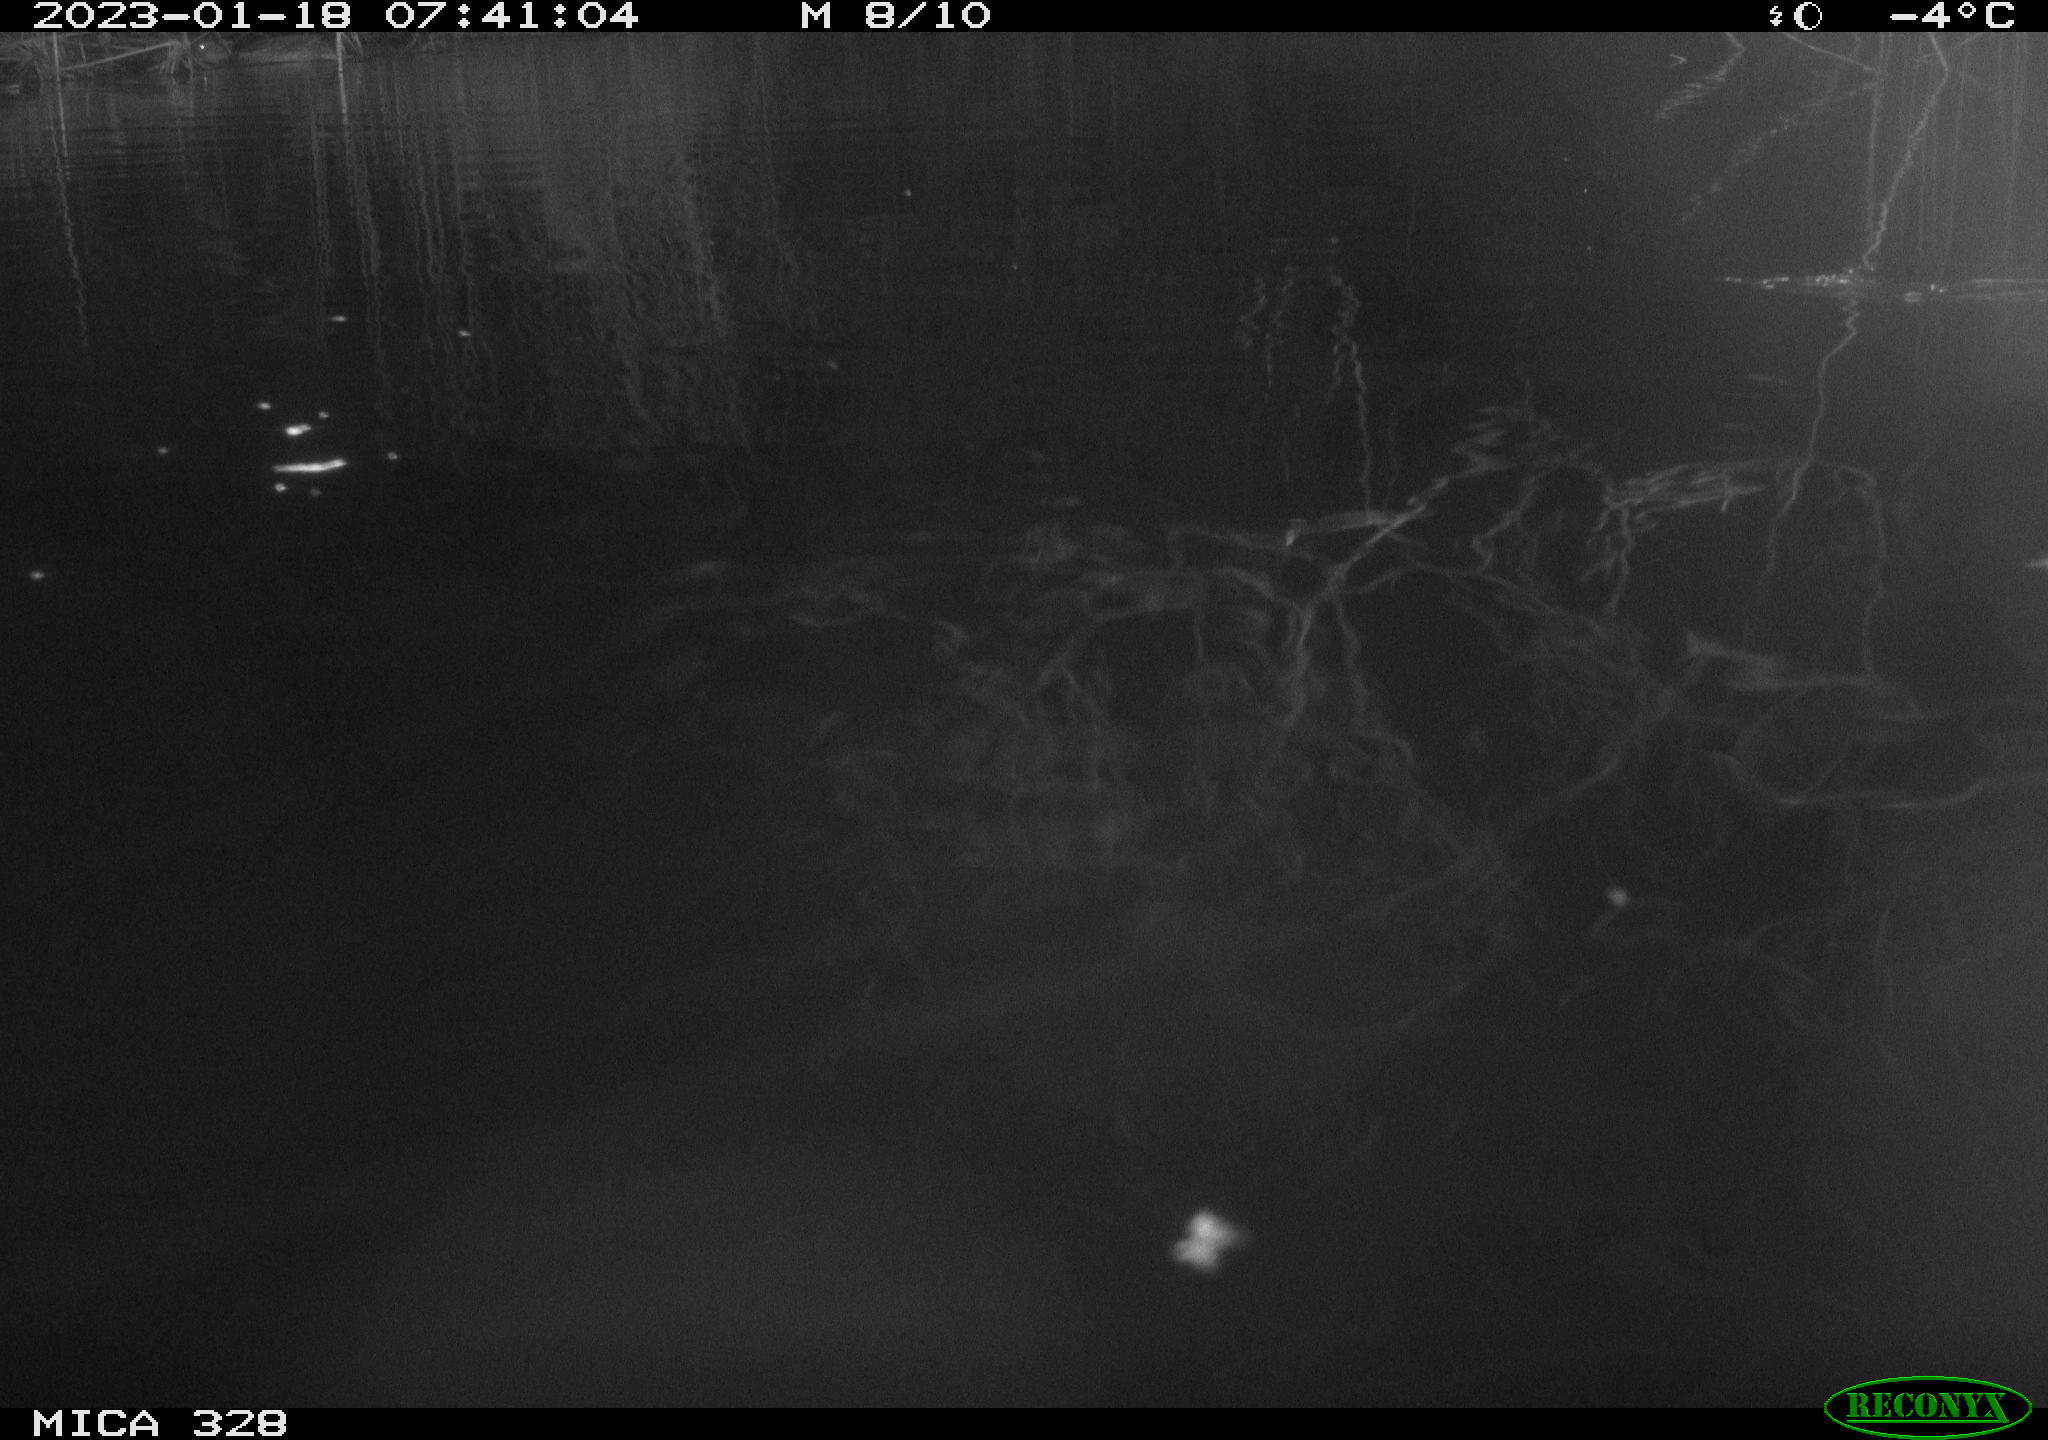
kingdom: Animalia
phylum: Chordata
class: Aves
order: Anseriformes
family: Anatidae
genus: Anas
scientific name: Anas
